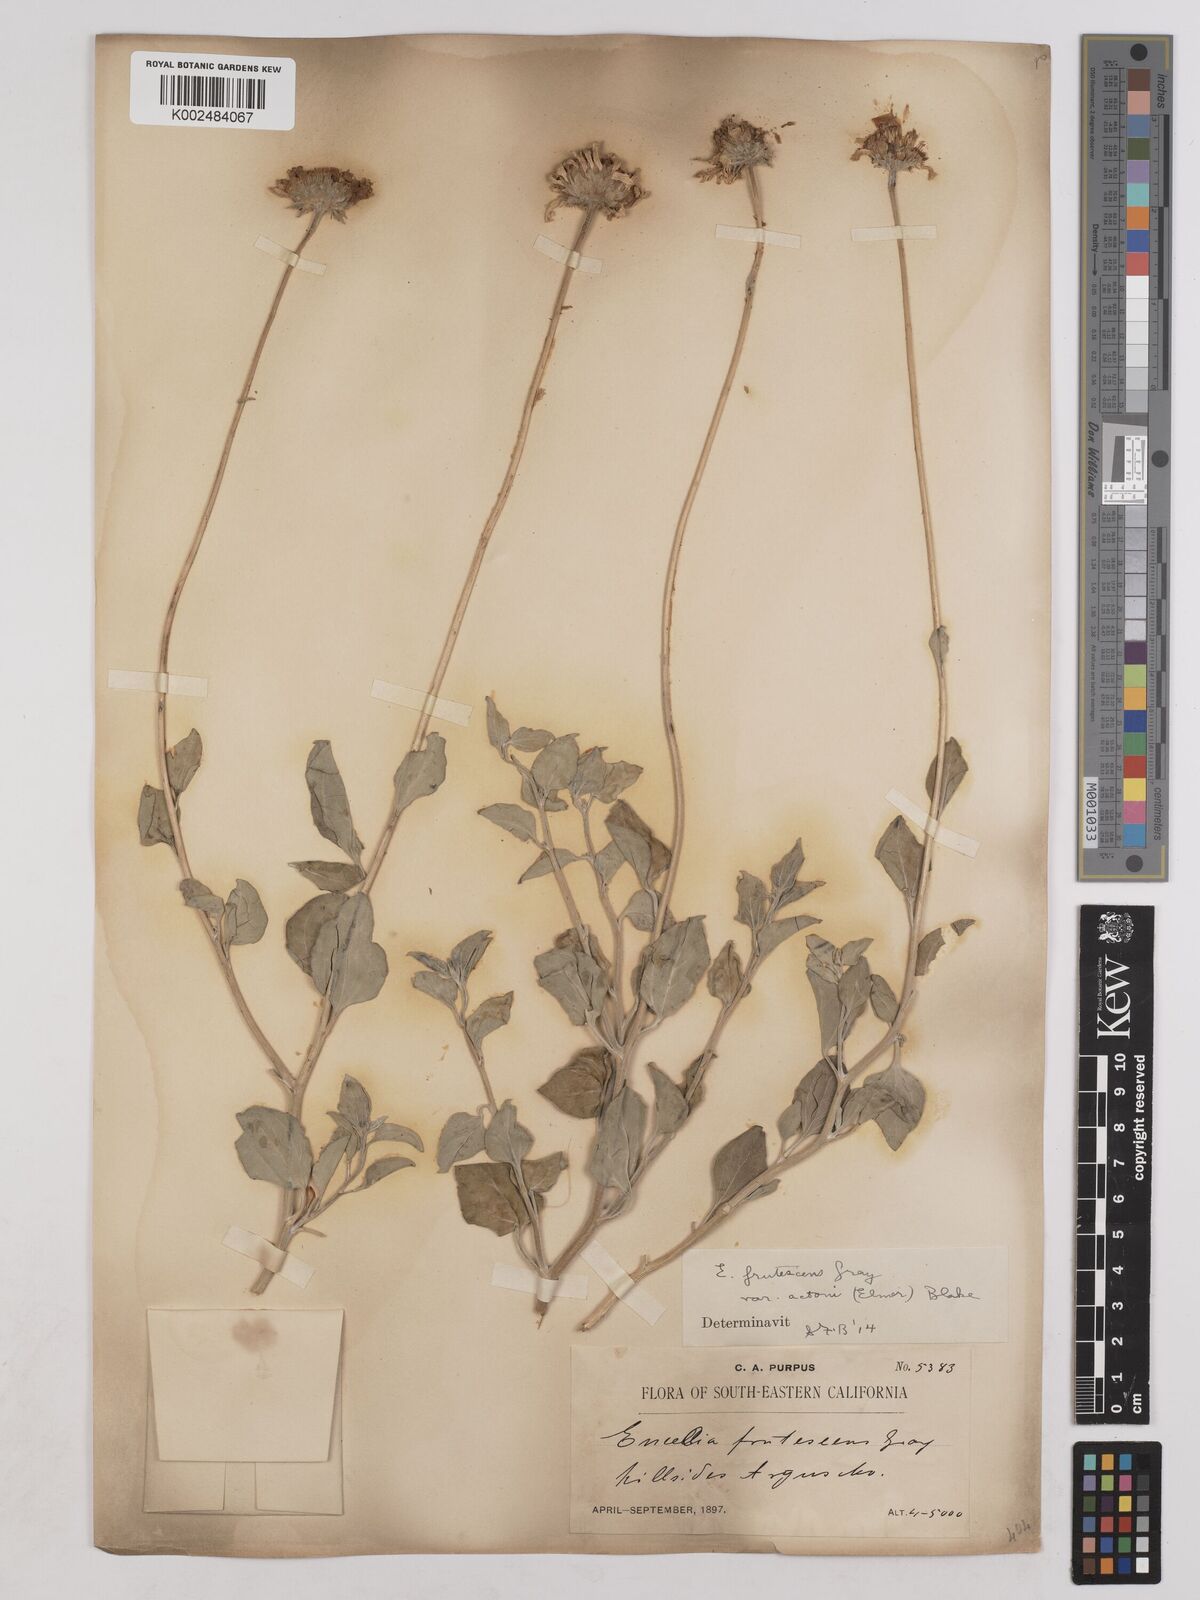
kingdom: Plantae
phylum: Tracheophyta
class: Magnoliopsida
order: Asterales
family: Asteraceae
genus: Encelia
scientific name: Encelia actoni
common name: Acton encelia
